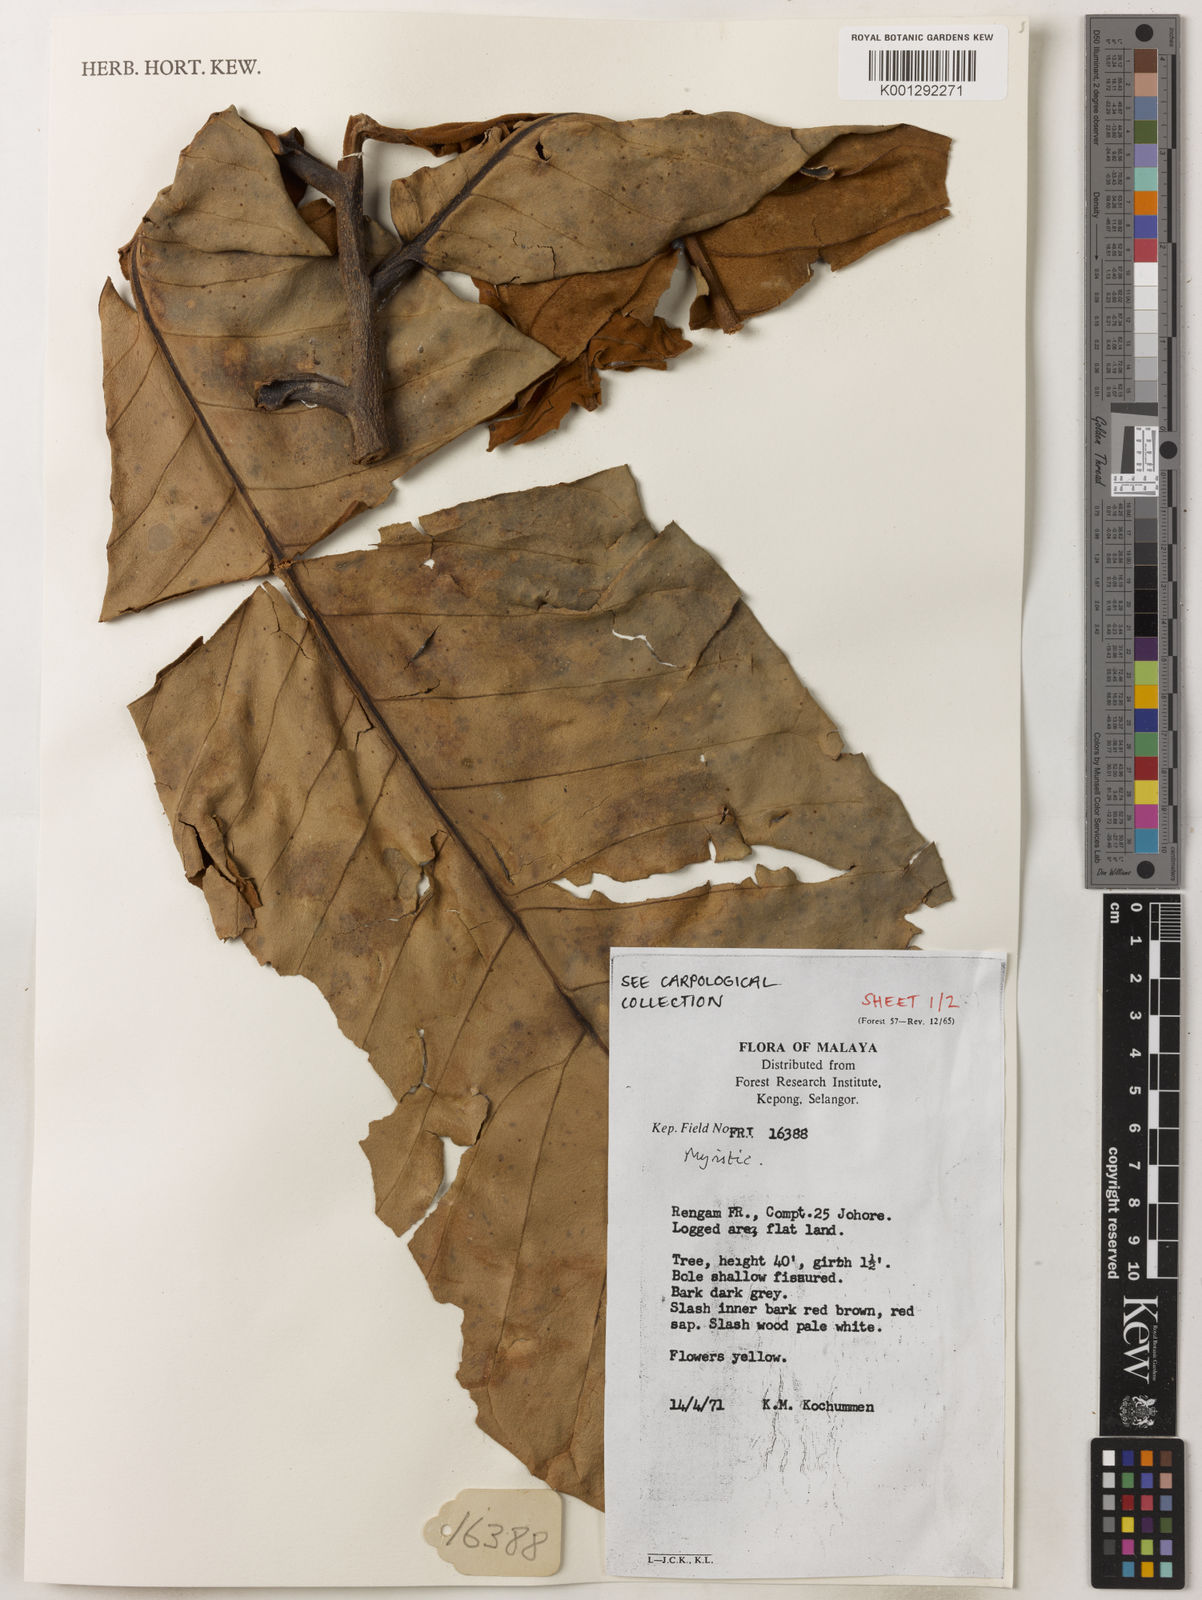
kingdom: Plantae
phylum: Tracheophyta
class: Magnoliopsida
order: Magnoliales
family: Myristicaceae
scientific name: Myristicaceae
